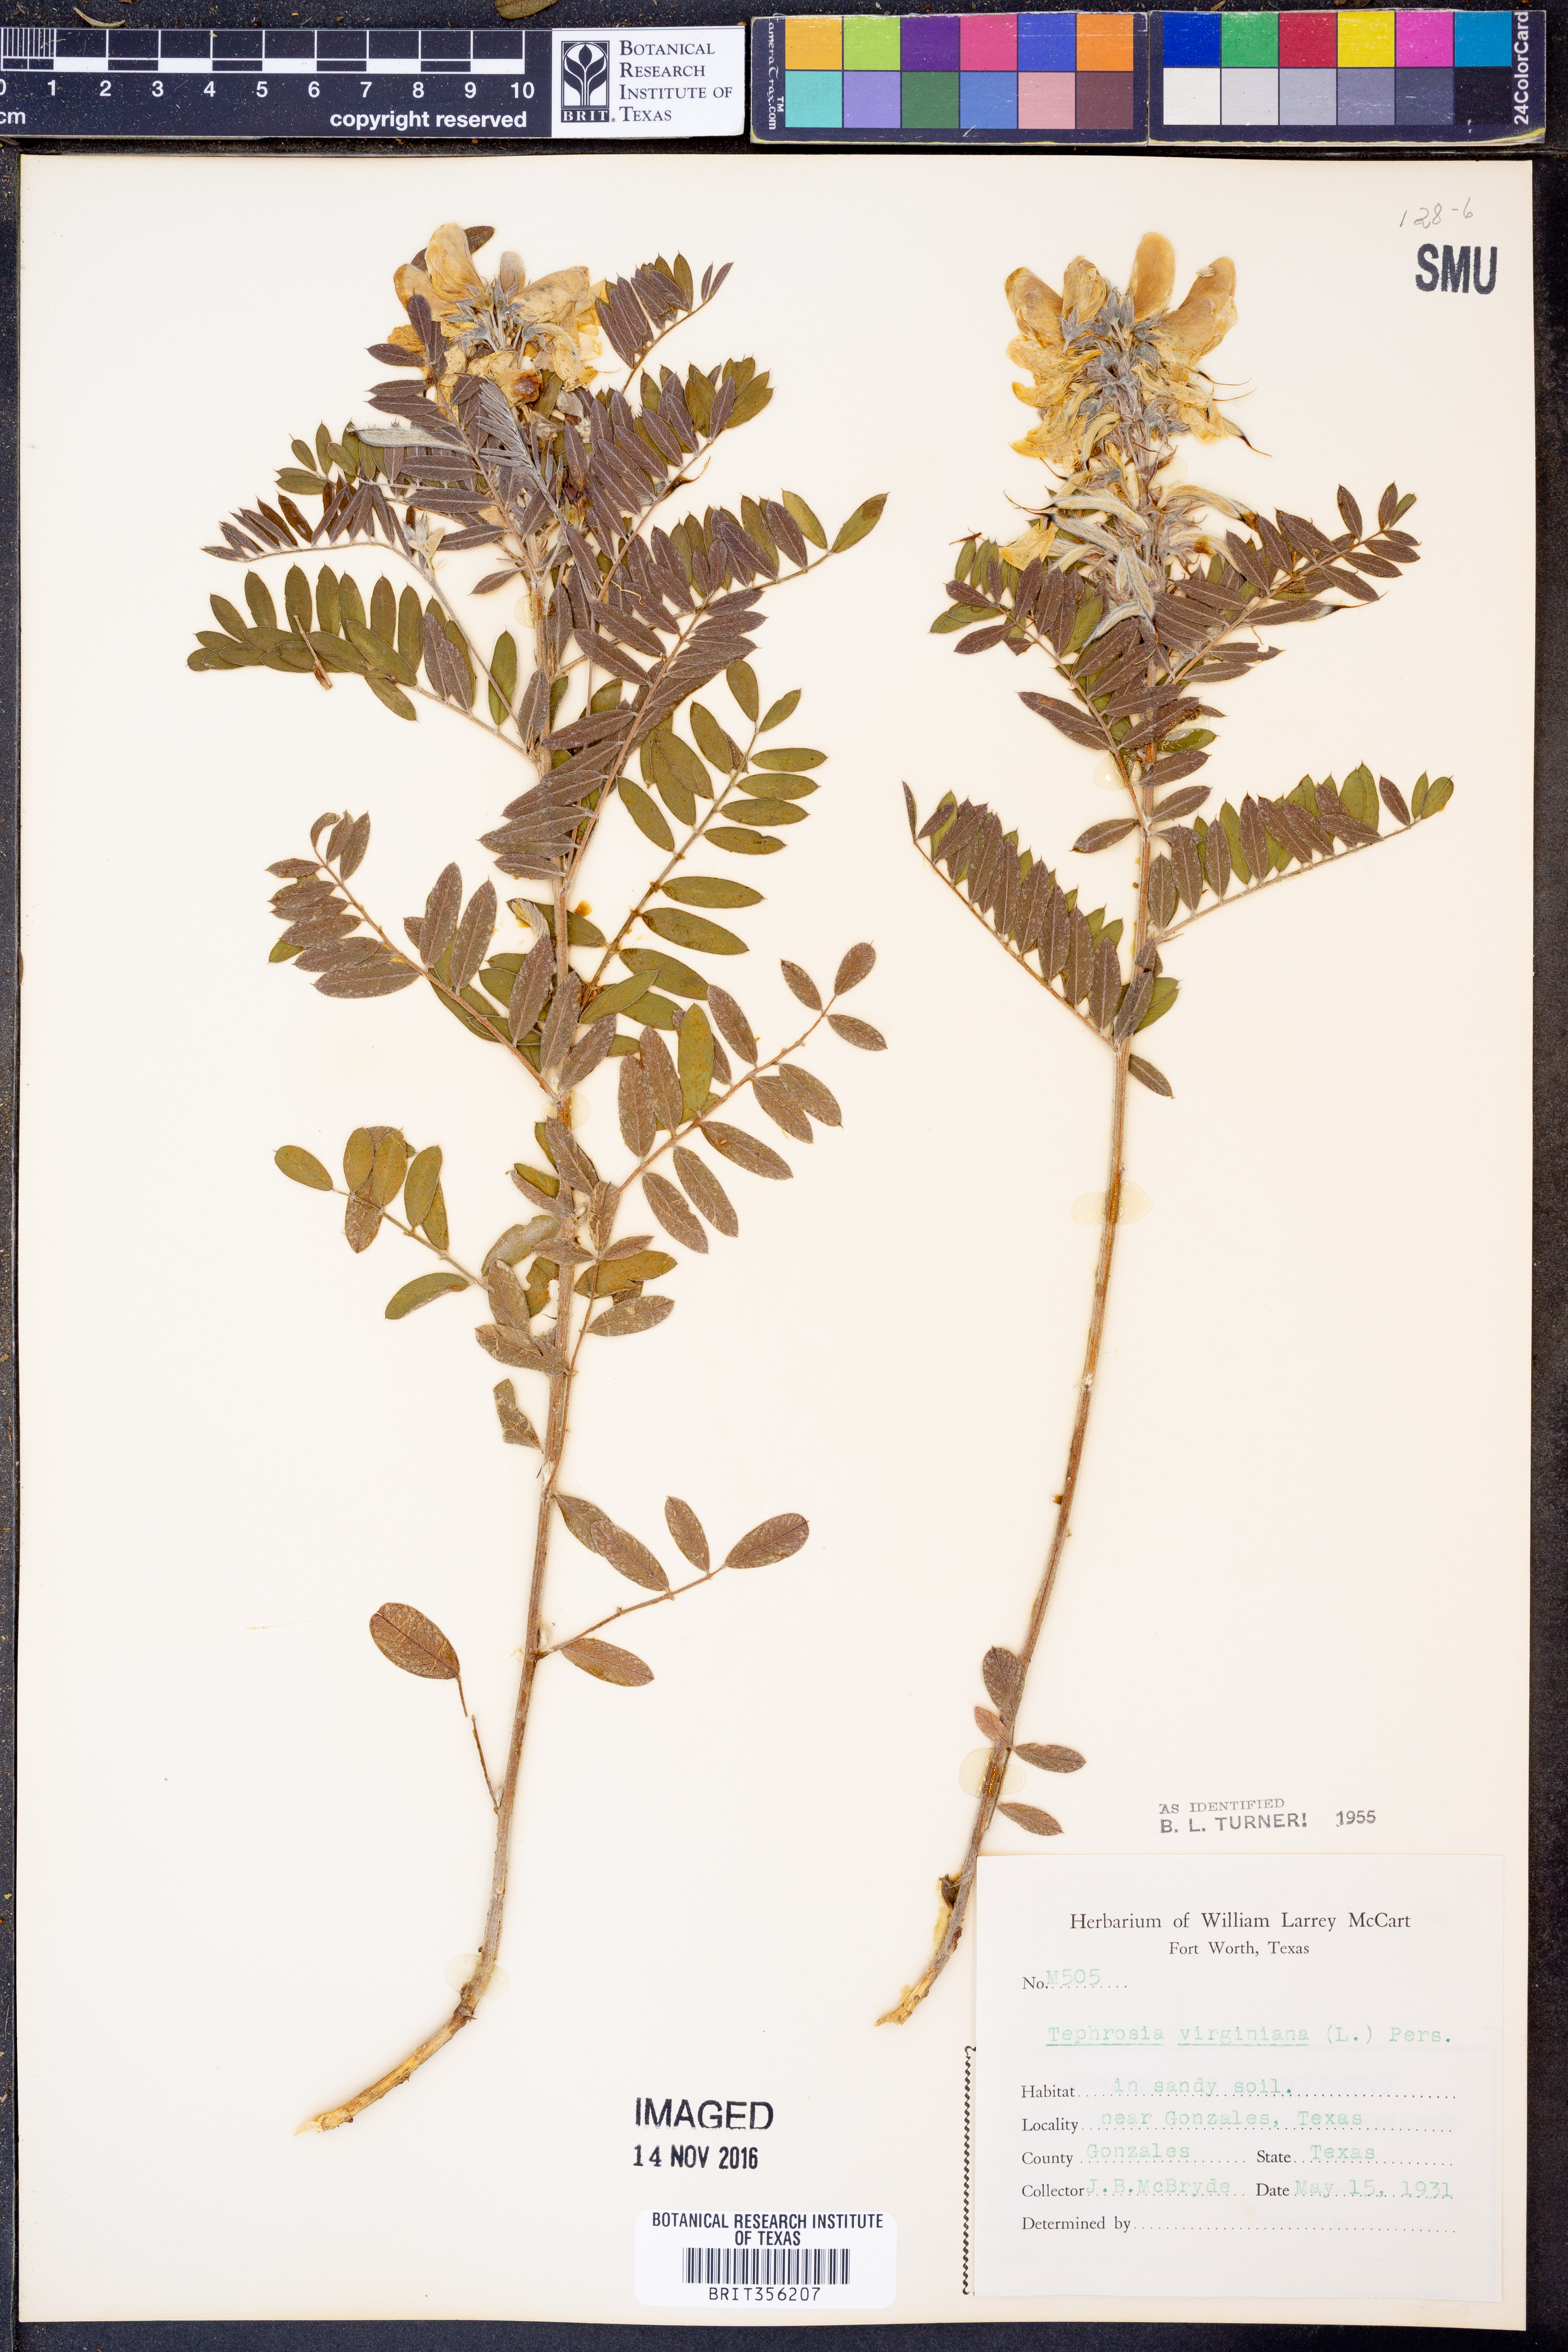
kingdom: Plantae
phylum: Tracheophyta
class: Magnoliopsida
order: Fabales
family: Fabaceae
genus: Tephrosia
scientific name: Tephrosia virginiana
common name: Rabbit-pea
